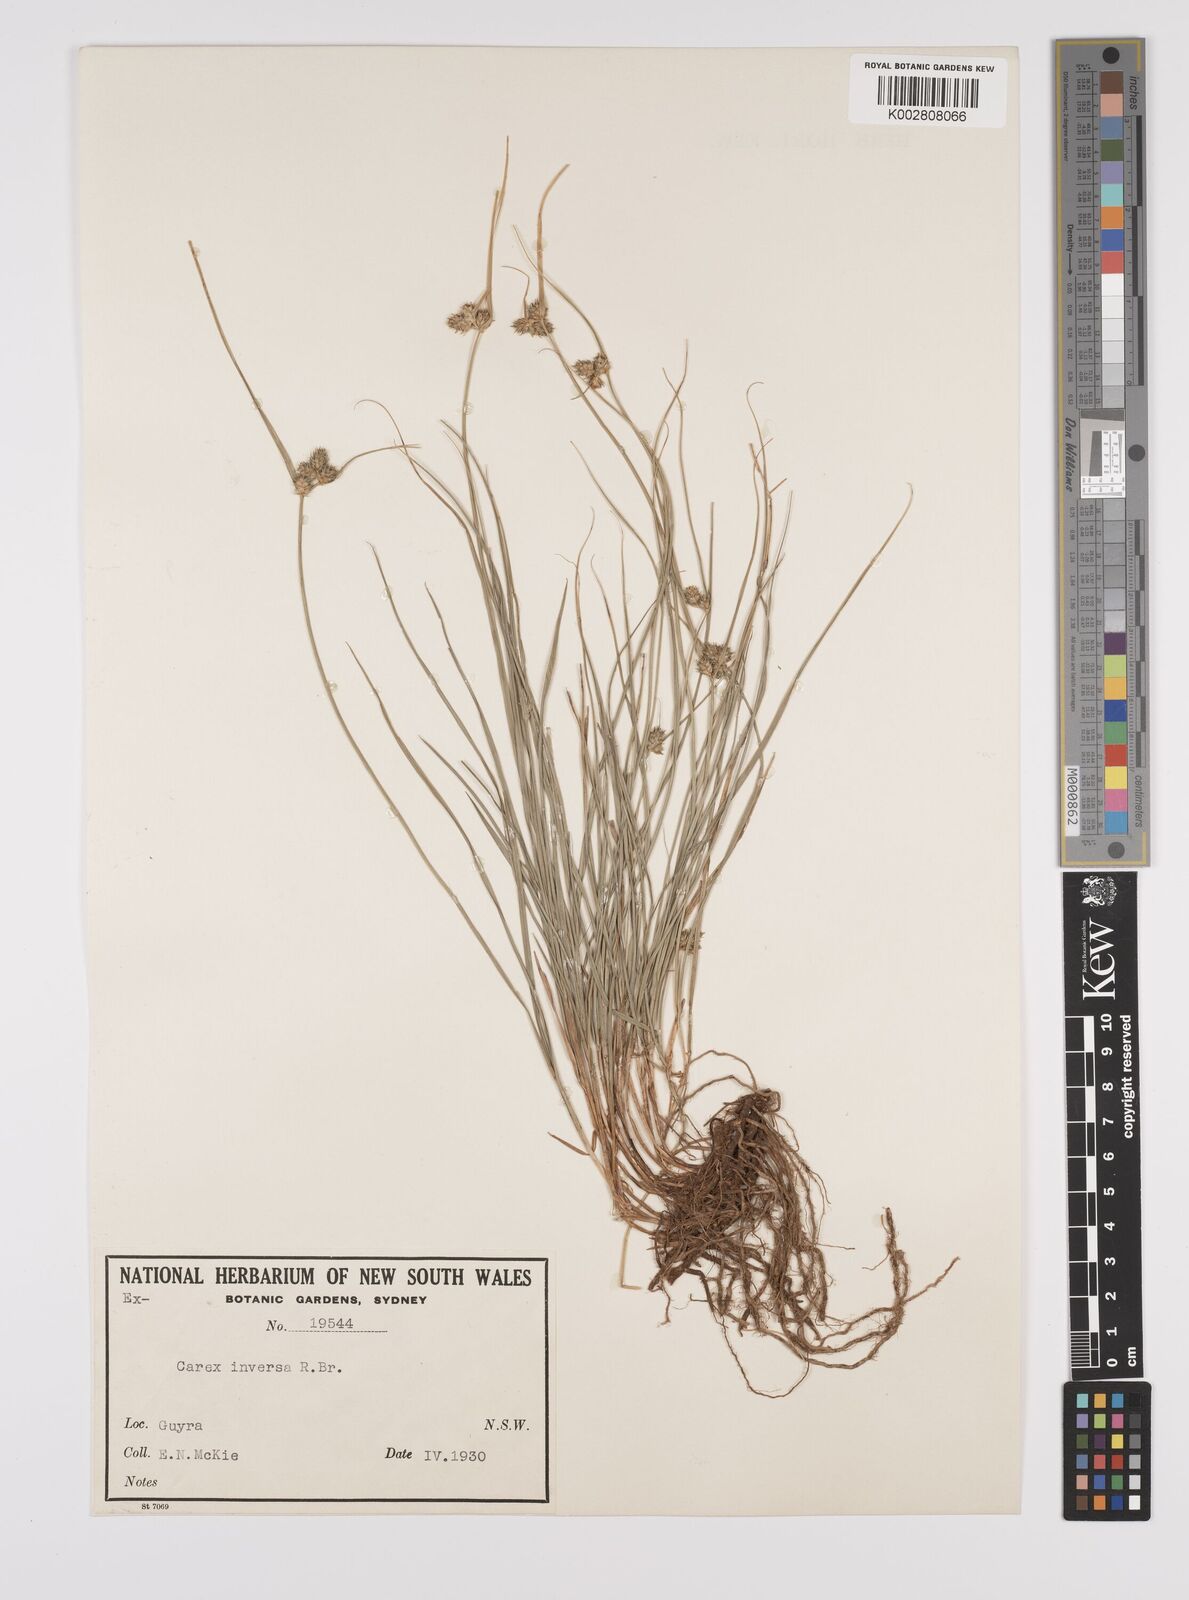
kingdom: Plantae
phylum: Tracheophyta
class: Liliopsida
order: Poales
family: Cyperaceae
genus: Carex
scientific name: Carex inversa
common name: Knob sedge
